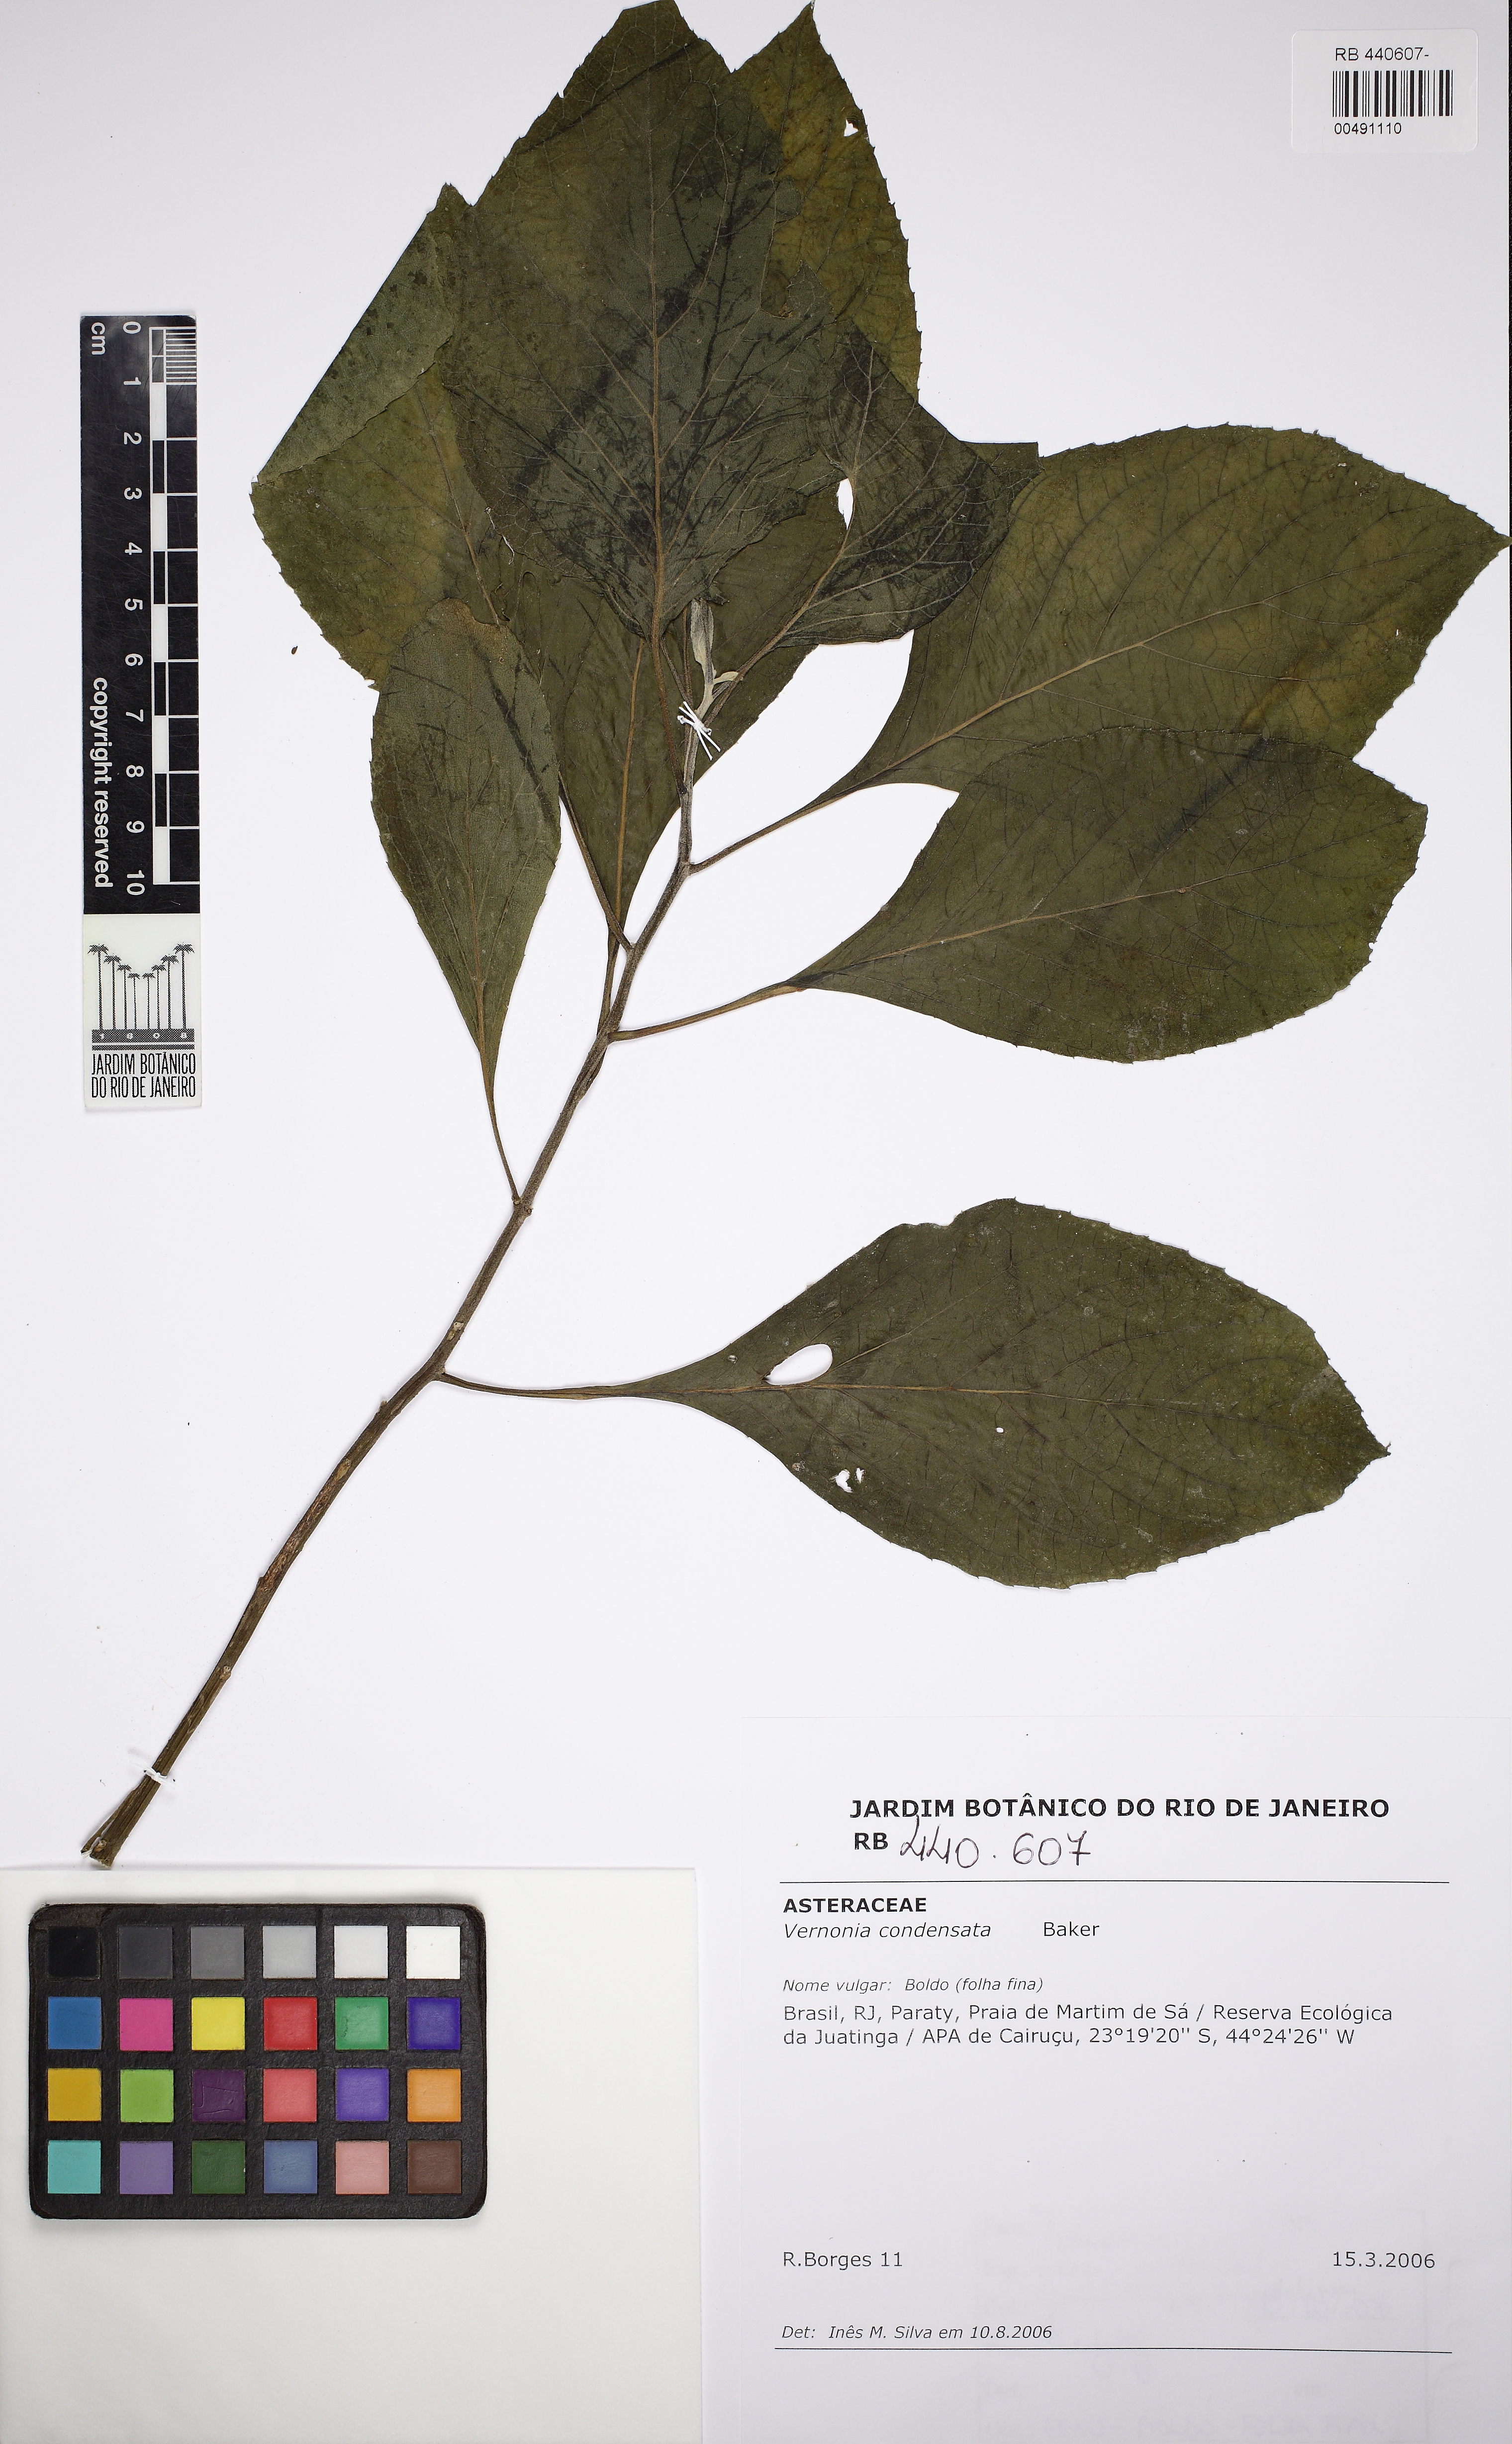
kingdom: Plantae
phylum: Tracheophyta
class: Magnoliopsida
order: Asterales
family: Asteraceae
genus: Gymnanthemum
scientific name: Gymnanthemum amygdalinum
